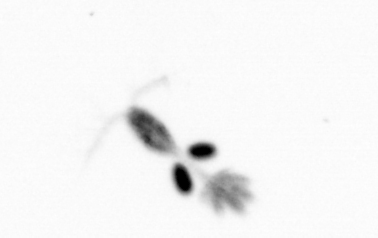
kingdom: Animalia
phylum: Arthropoda
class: Copepoda
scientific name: Copepoda
